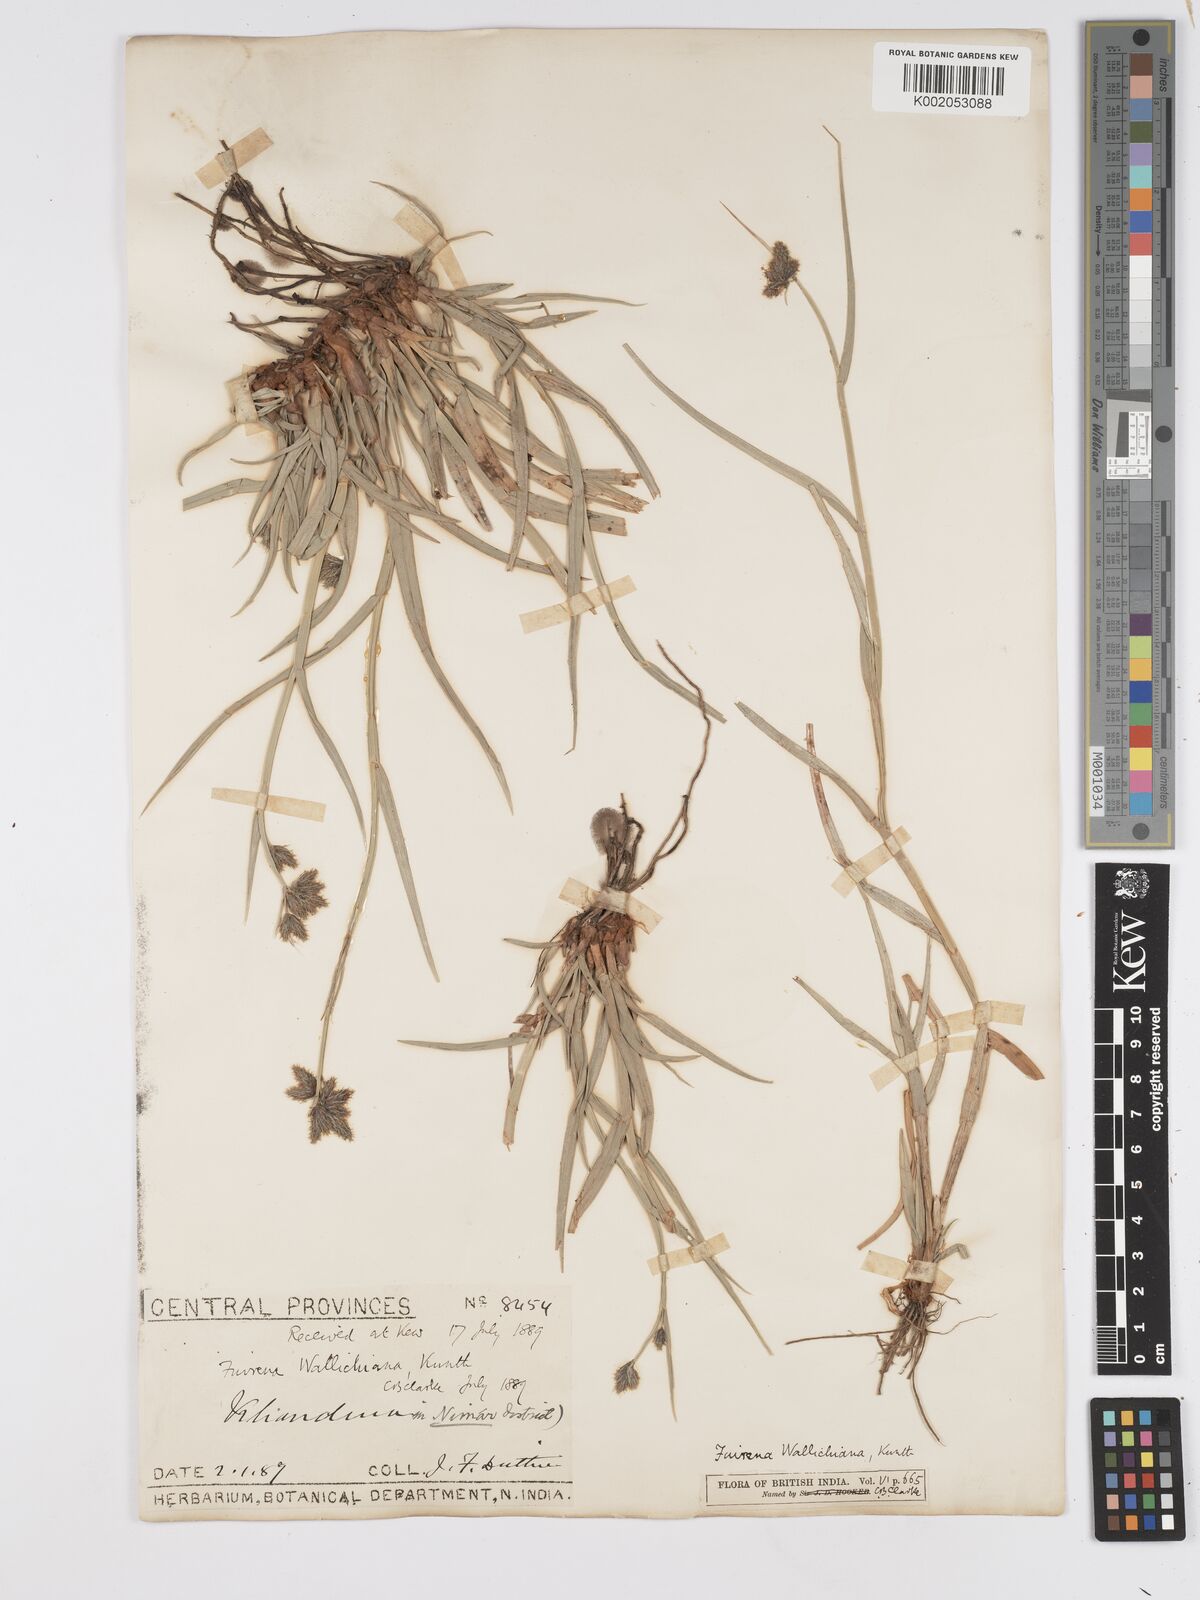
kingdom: Plantae
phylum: Tracheophyta
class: Liliopsida
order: Poales
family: Cyperaceae
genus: Fuirena
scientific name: Fuirena cuspidata
